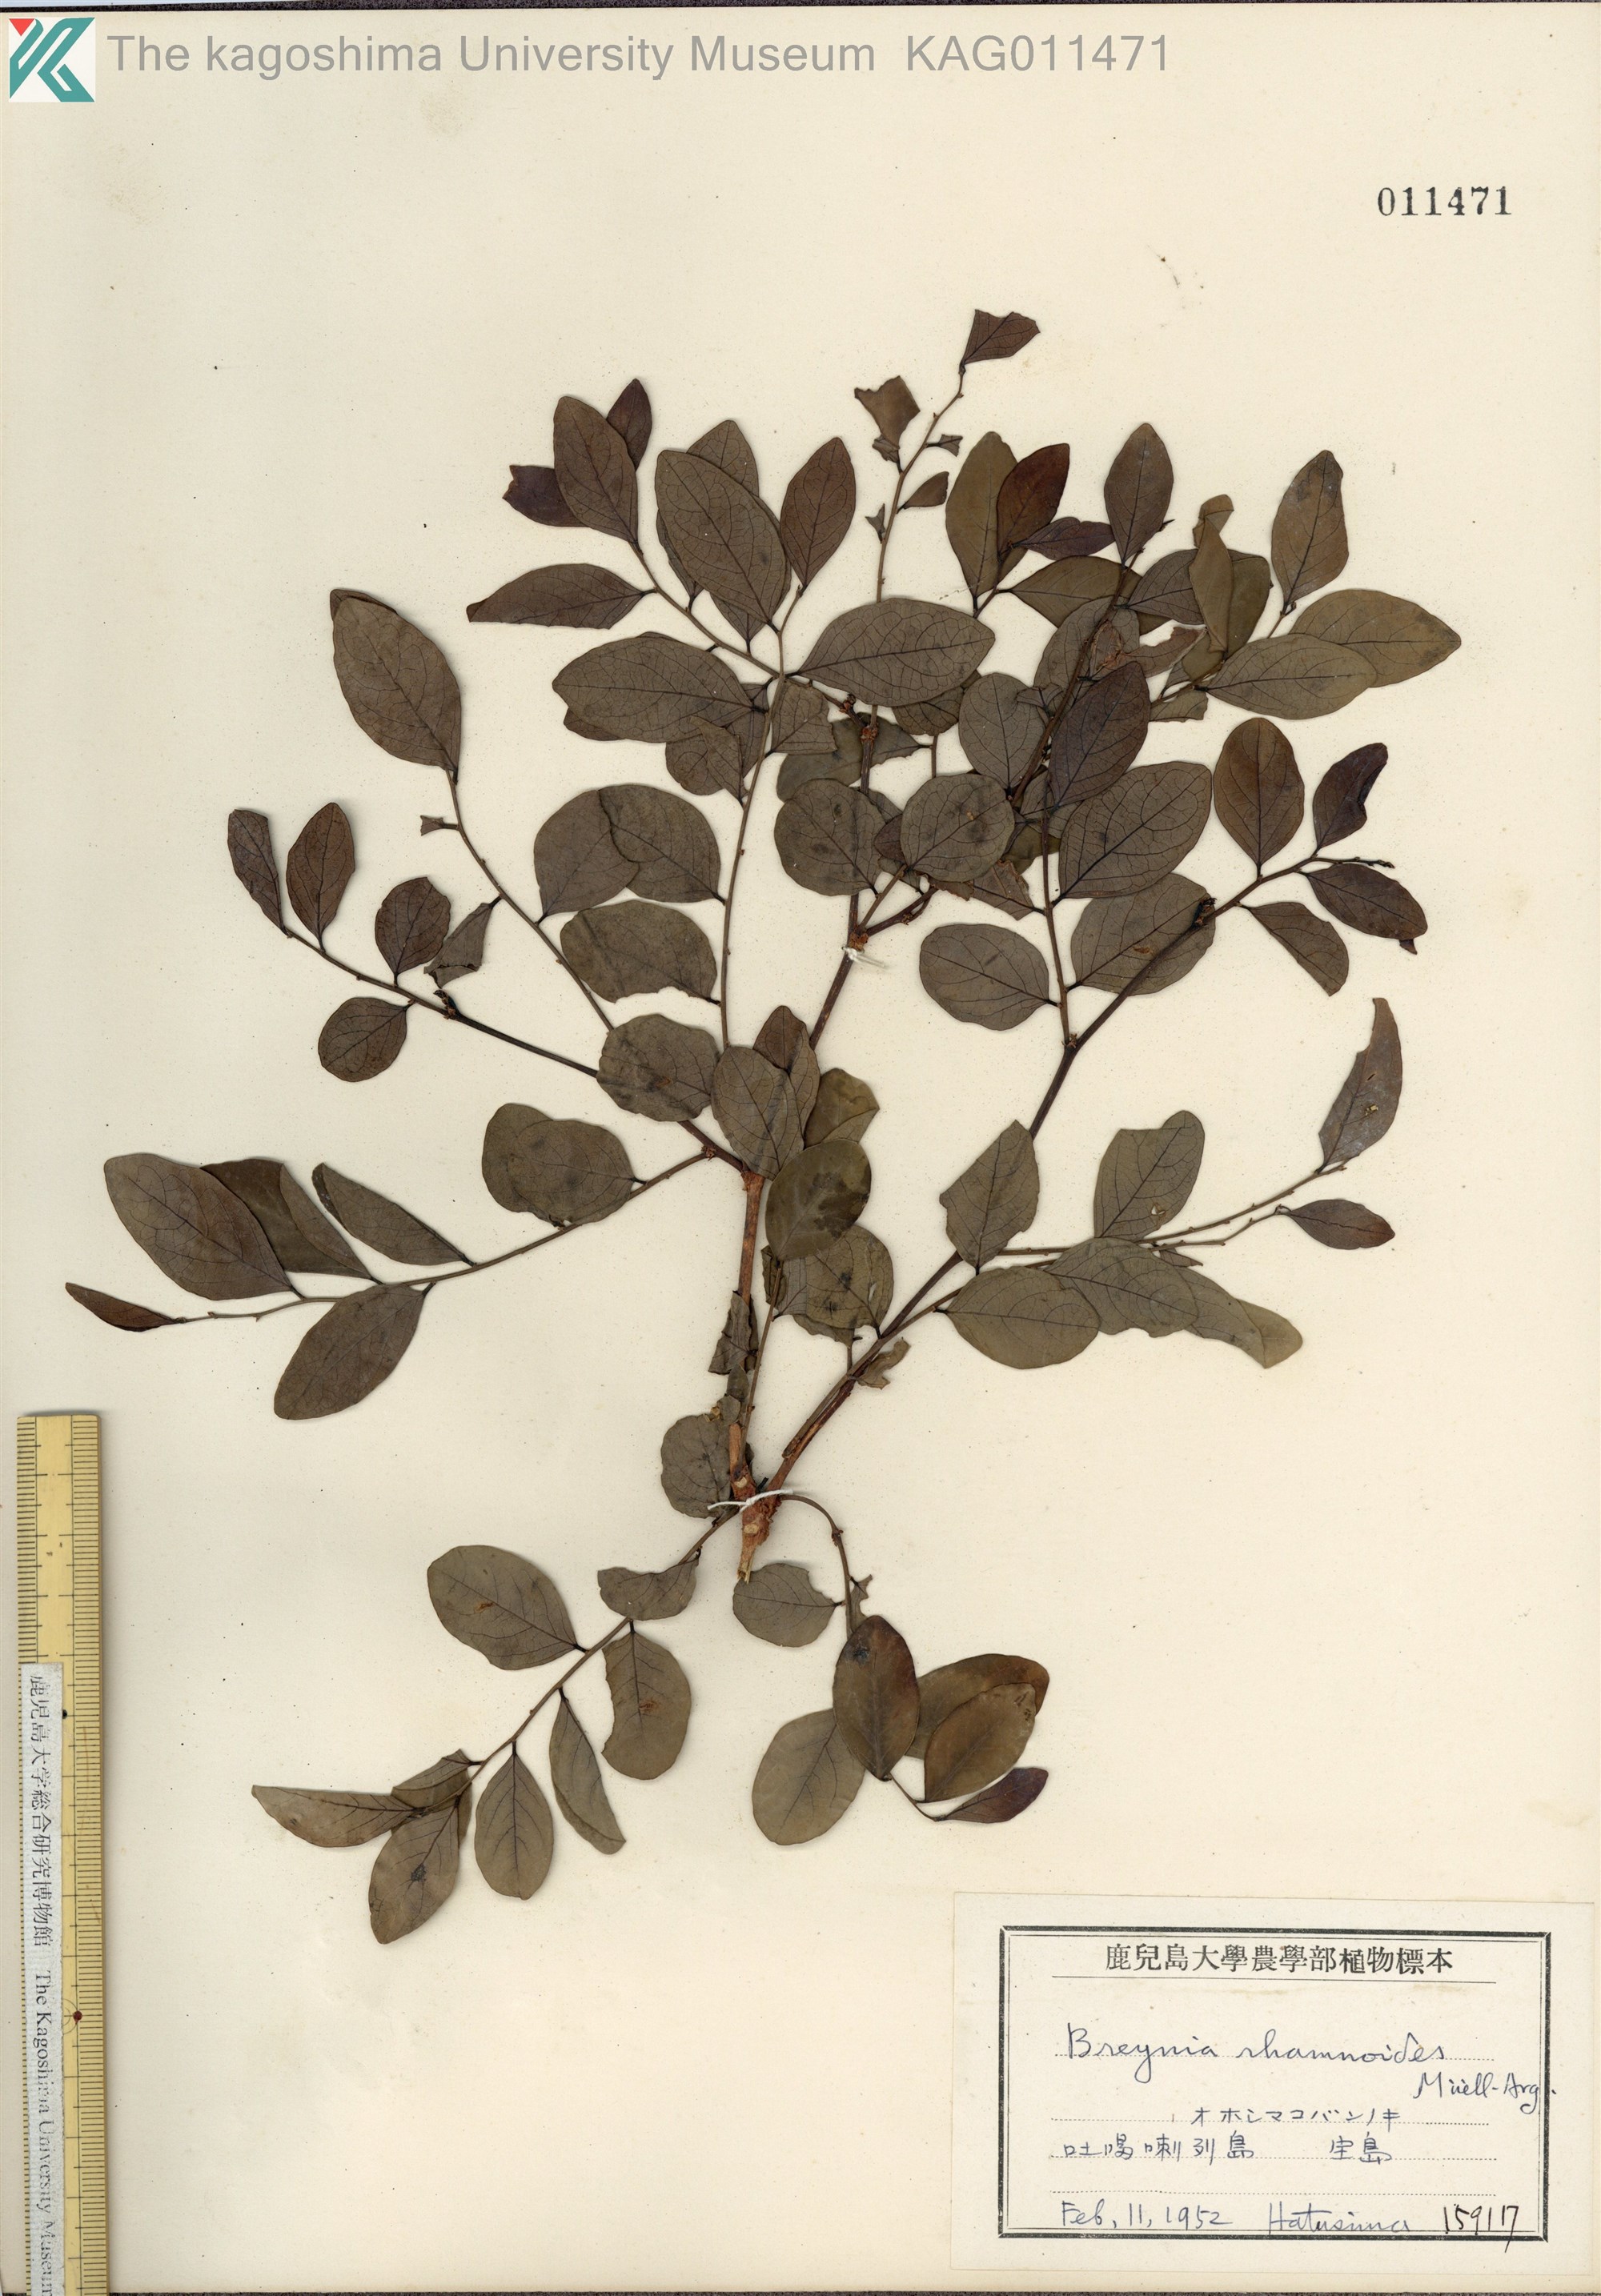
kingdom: Plantae
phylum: Tracheophyta
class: Magnoliopsida
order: Malpighiales
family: Phyllanthaceae
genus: Breynia
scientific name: Breynia vitis-idaea
